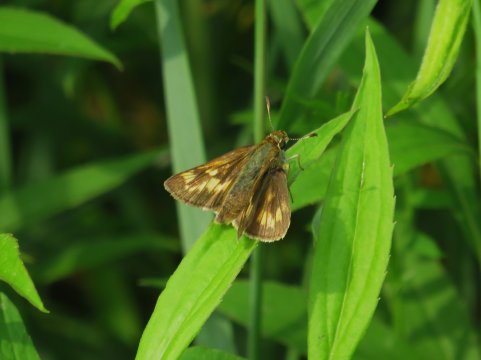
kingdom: Animalia
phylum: Arthropoda
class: Insecta
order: Lepidoptera
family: Hesperiidae
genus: Polites
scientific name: Polites
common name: Long Dash Skipper
